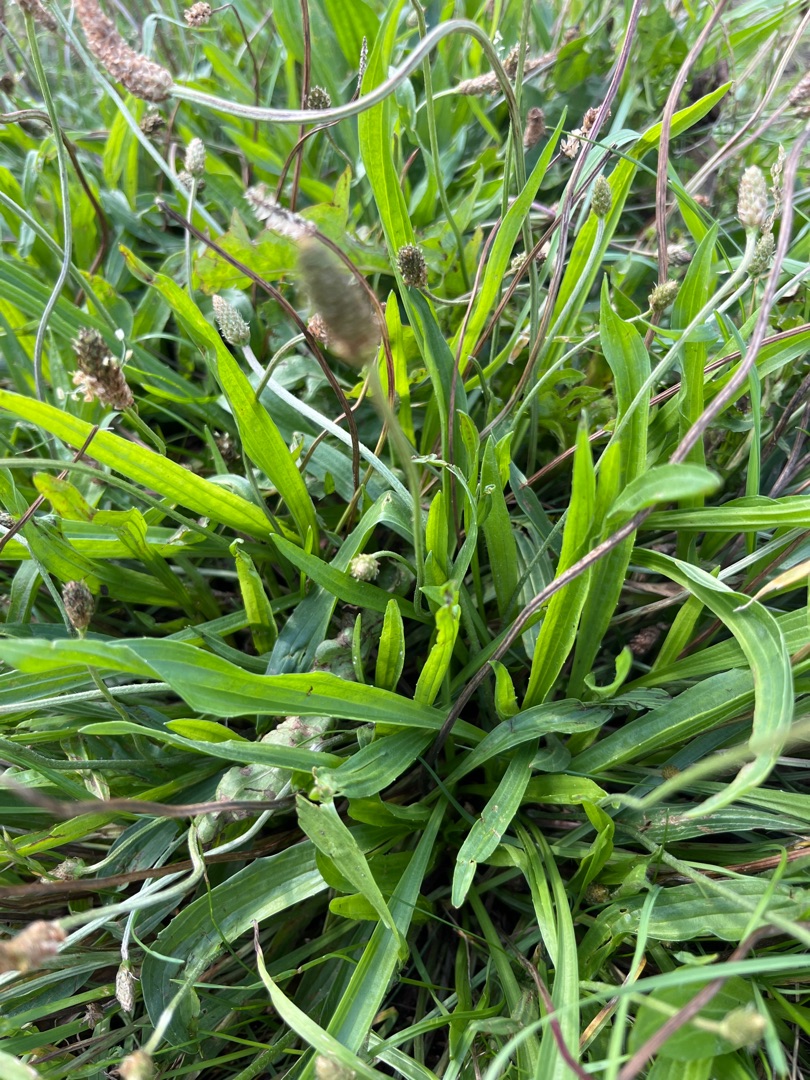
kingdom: Plantae
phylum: Tracheophyta
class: Magnoliopsida
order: Lamiales
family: Plantaginaceae
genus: Plantago
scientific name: Plantago lanceolata
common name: Lancet-vejbred
